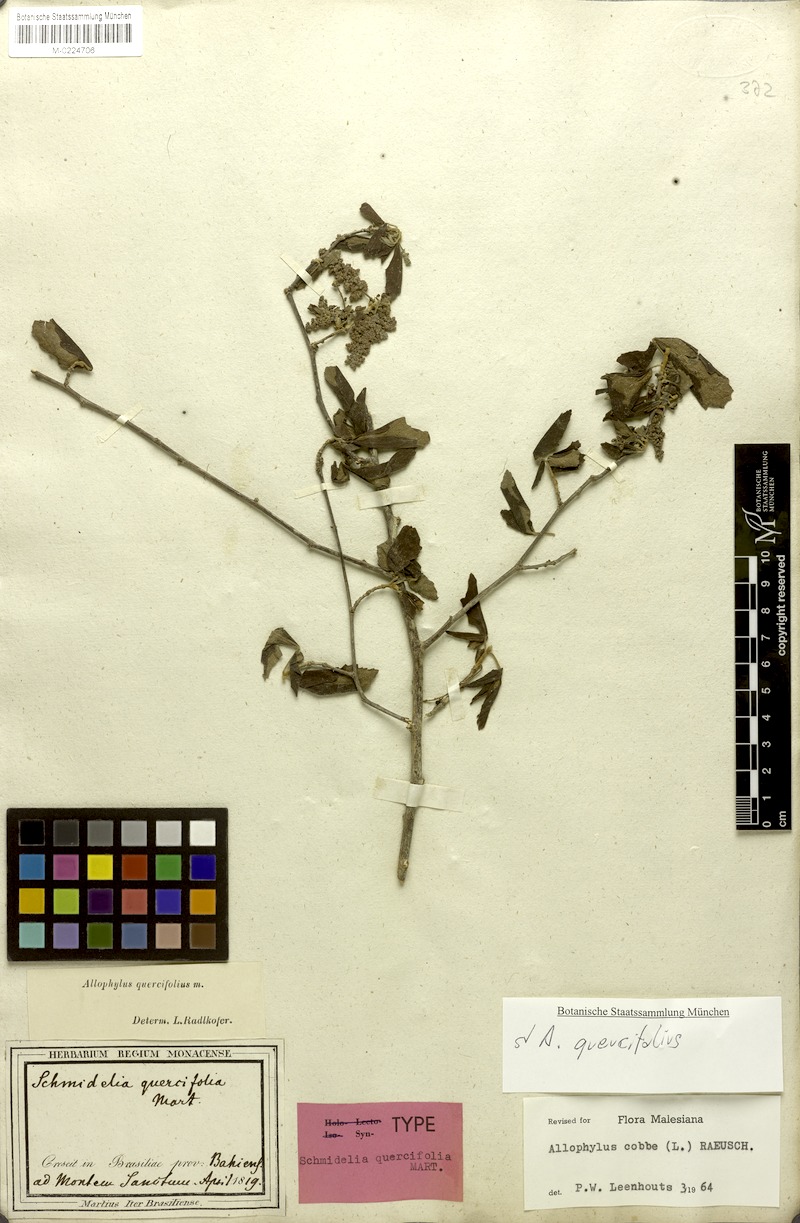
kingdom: Plantae
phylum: Tracheophyta
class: Magnoliopsida
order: Sapindales
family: Sapindaceae
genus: Allophylus
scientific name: Allophylus quercifolius
